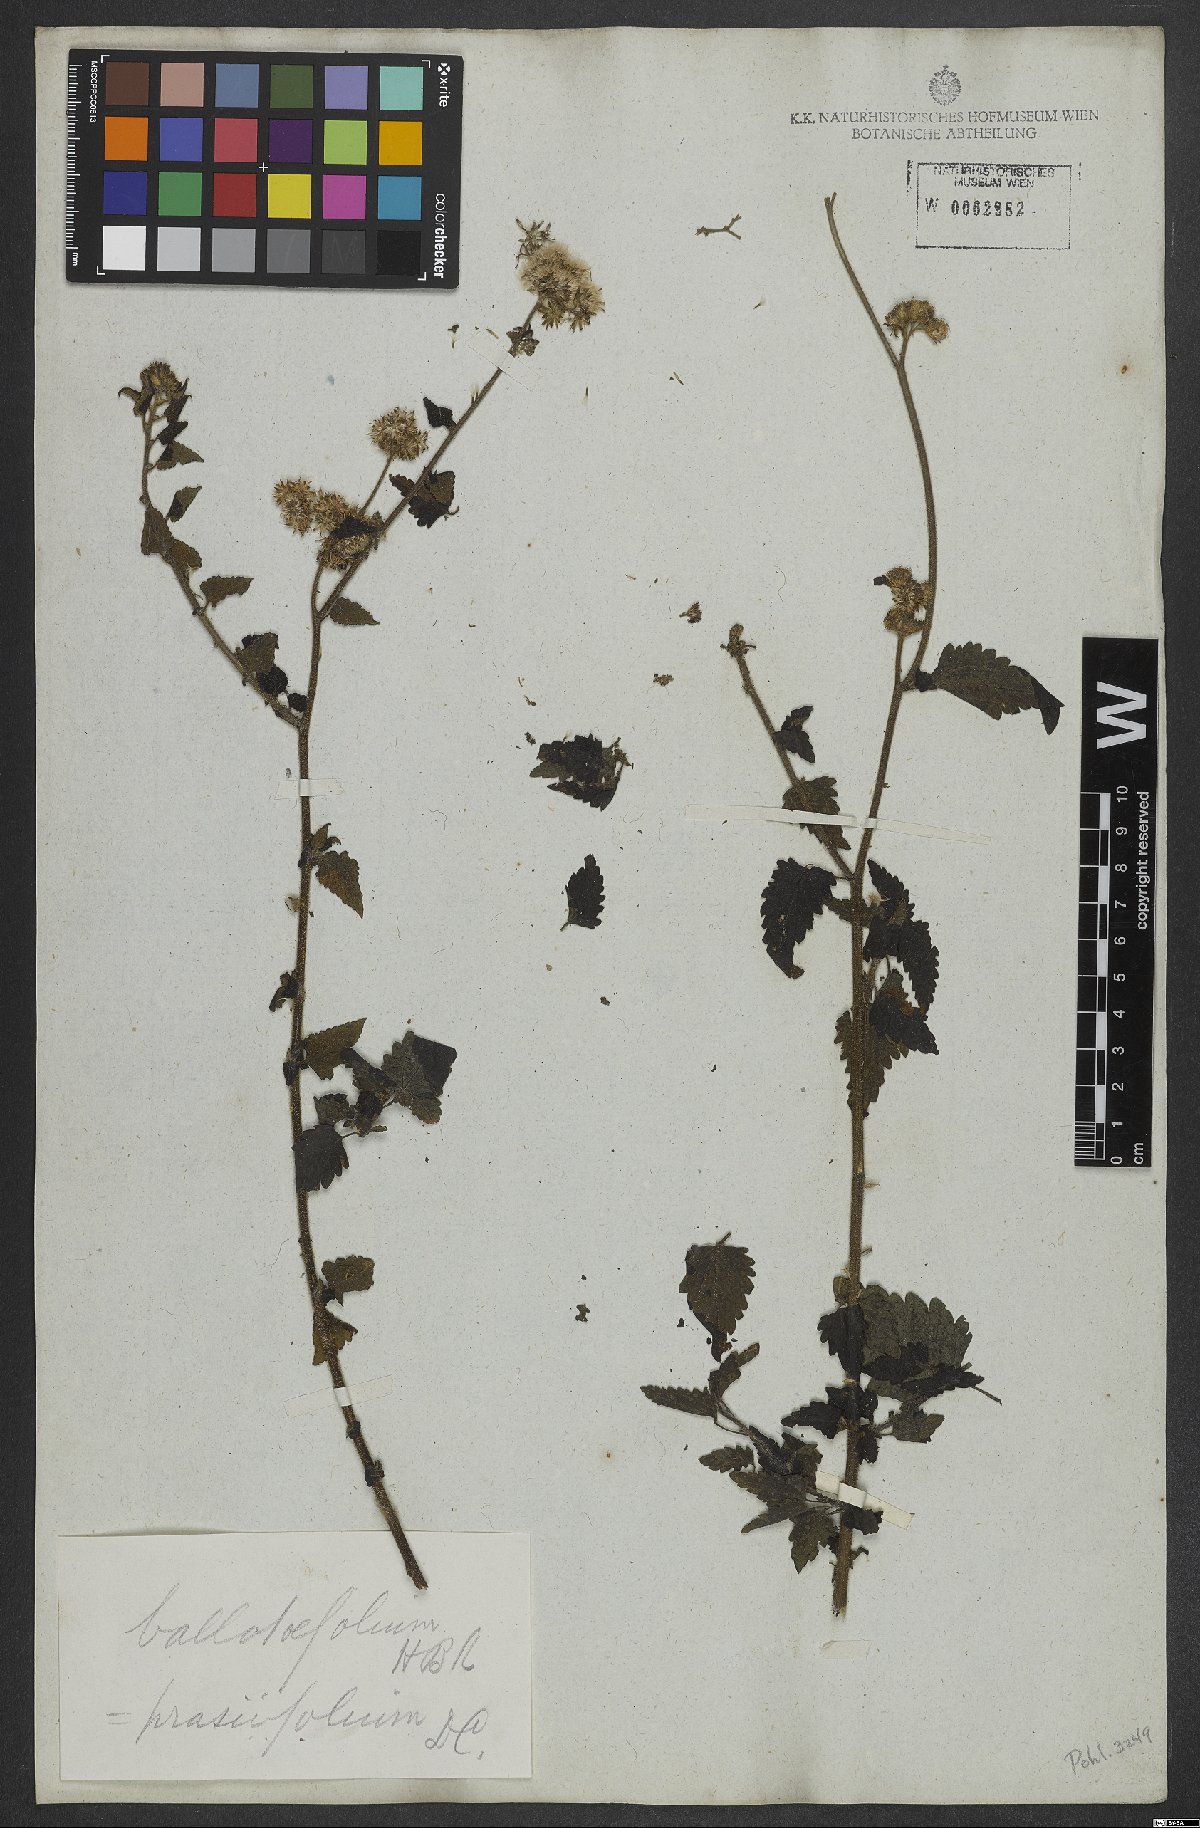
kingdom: Plantae
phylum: Tracheophyta
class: Magnoliopsida
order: Asterales
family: Asteraceae
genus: Lourteigia
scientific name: Lourteigia ballotifolia
